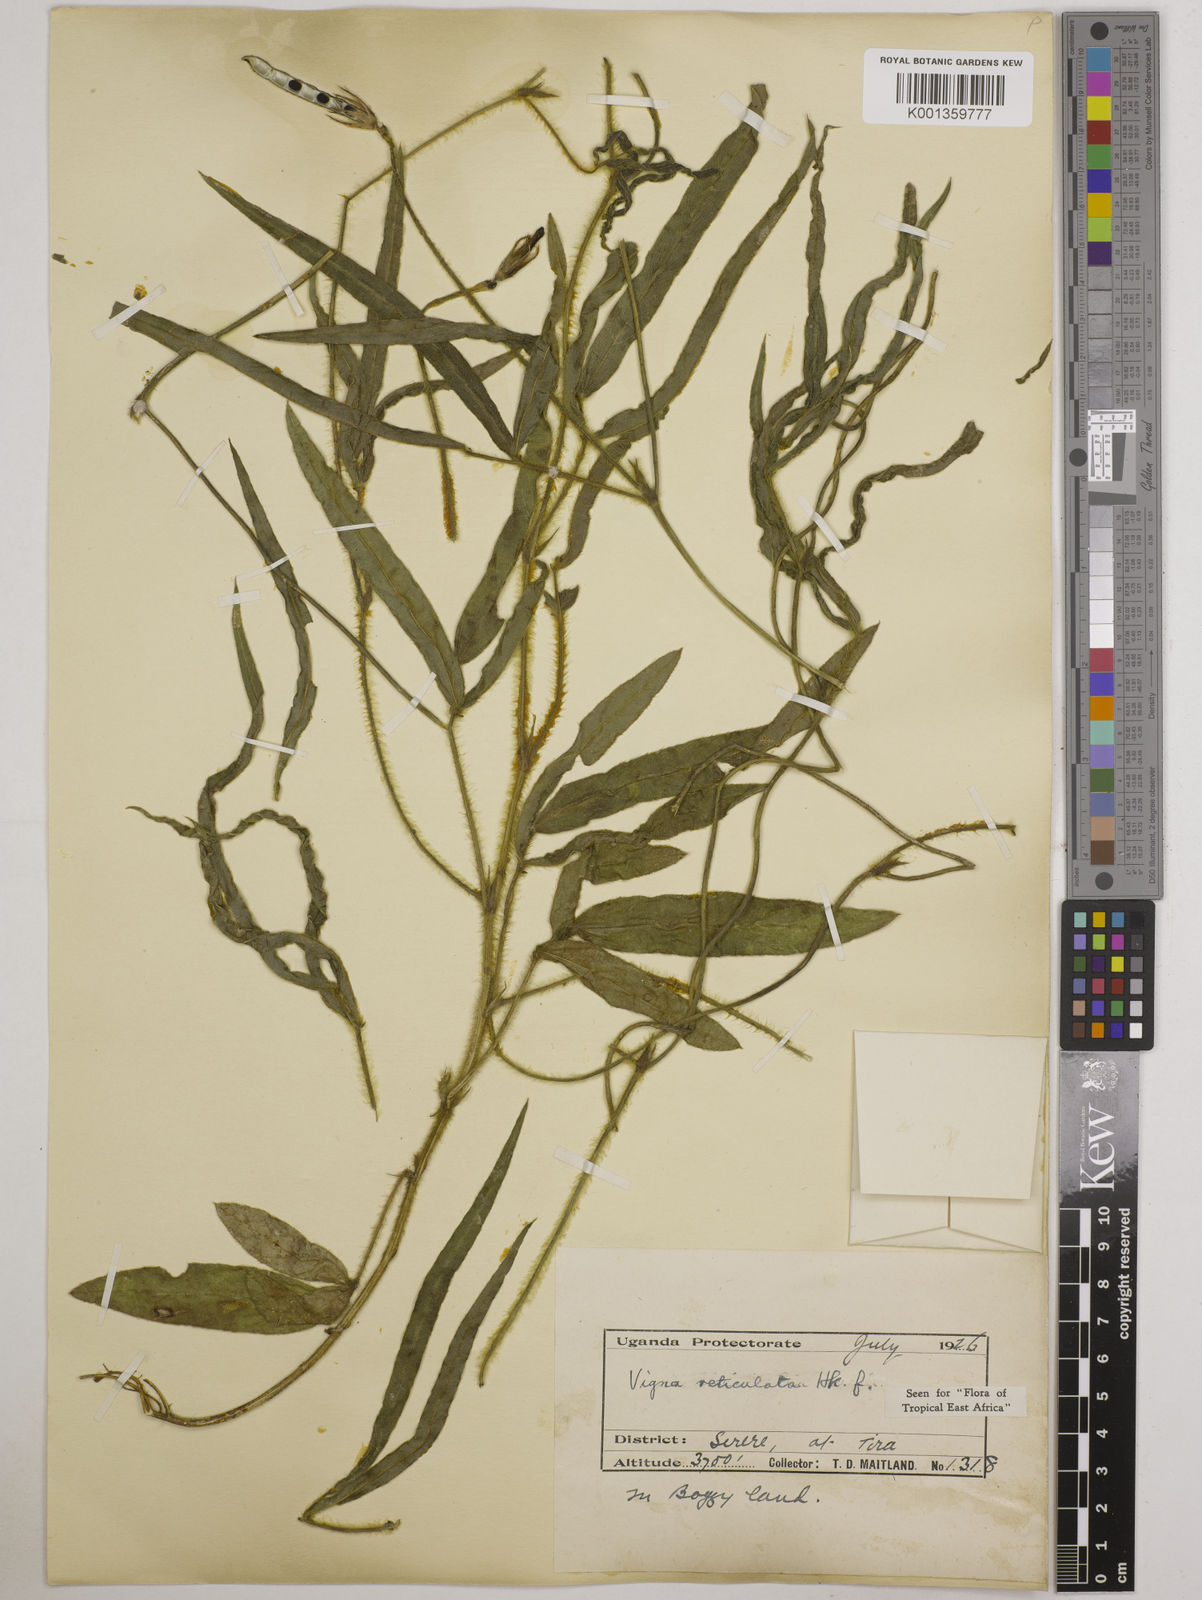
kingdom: Plantae
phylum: Tracheophyta
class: Magnoliopsida
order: Fabales
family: Fabaceae
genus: Vigna
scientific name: Vigna reticulata
